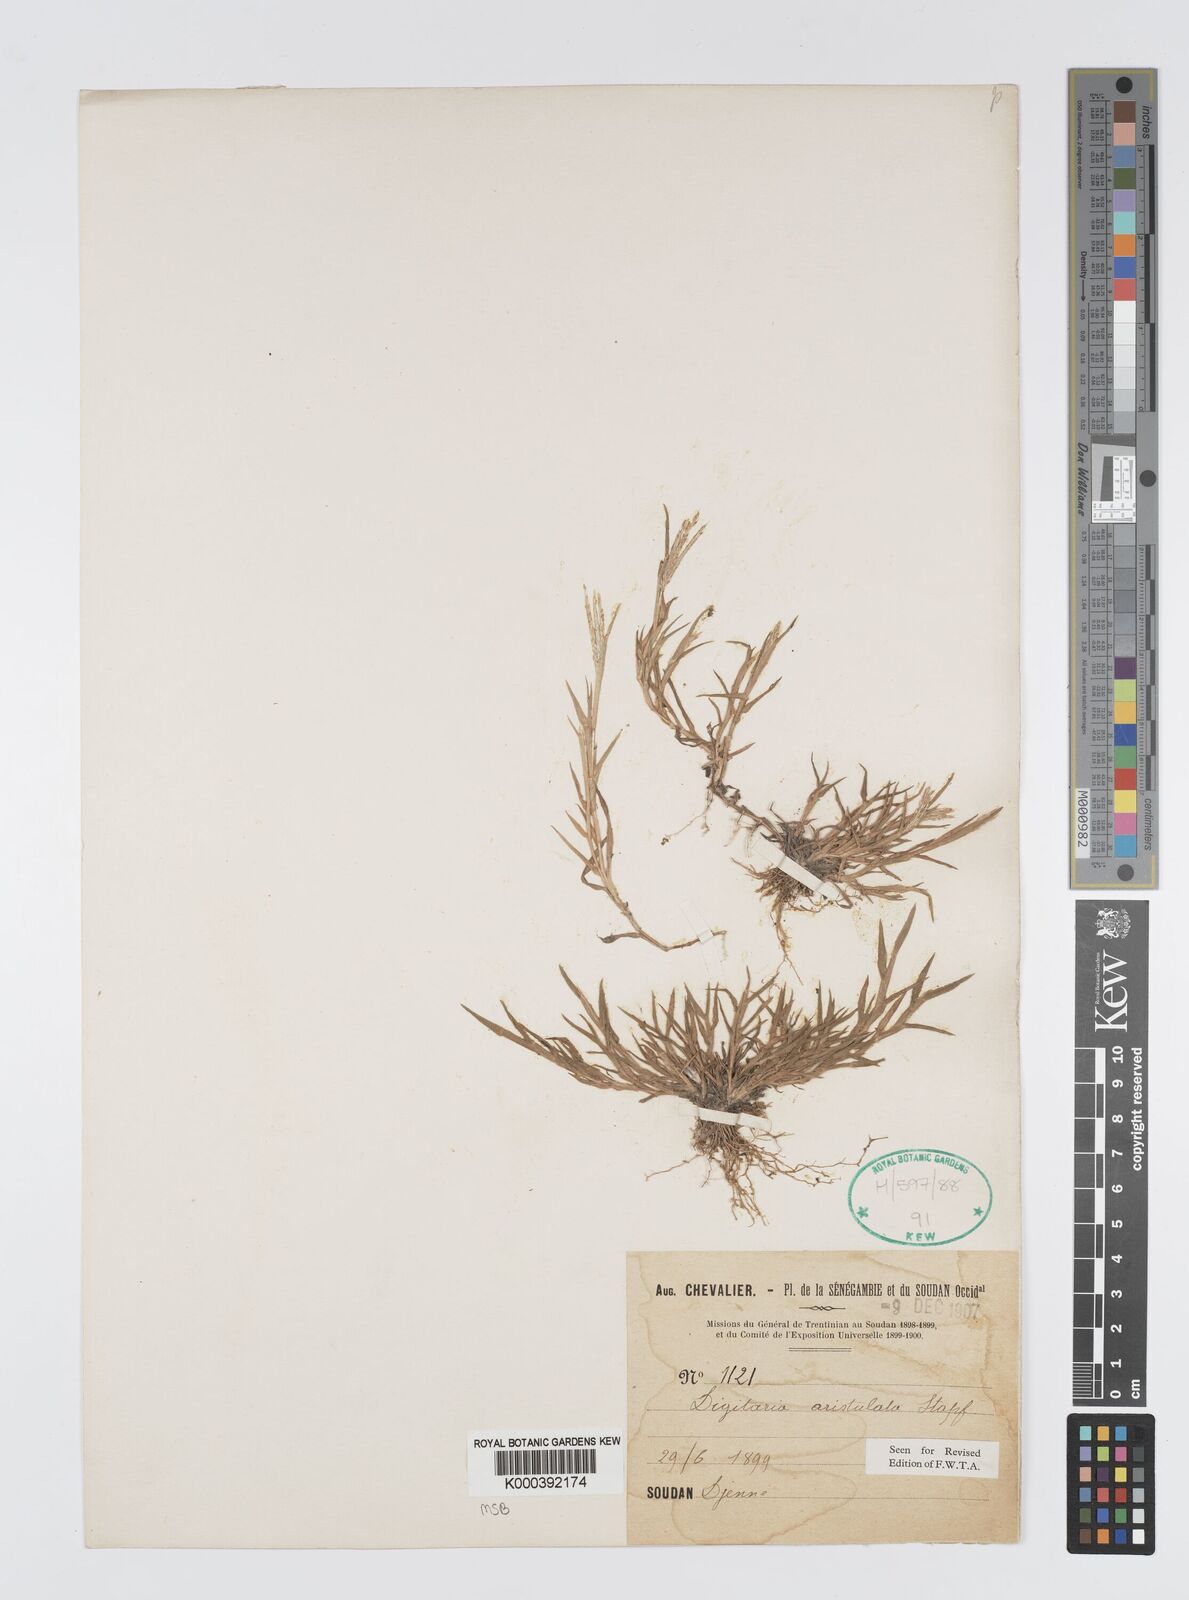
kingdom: Plantae
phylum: Tracheophyta
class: Liliopsida
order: Poales
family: Poaceae
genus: Digitaria
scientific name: Digitaria aristulata
